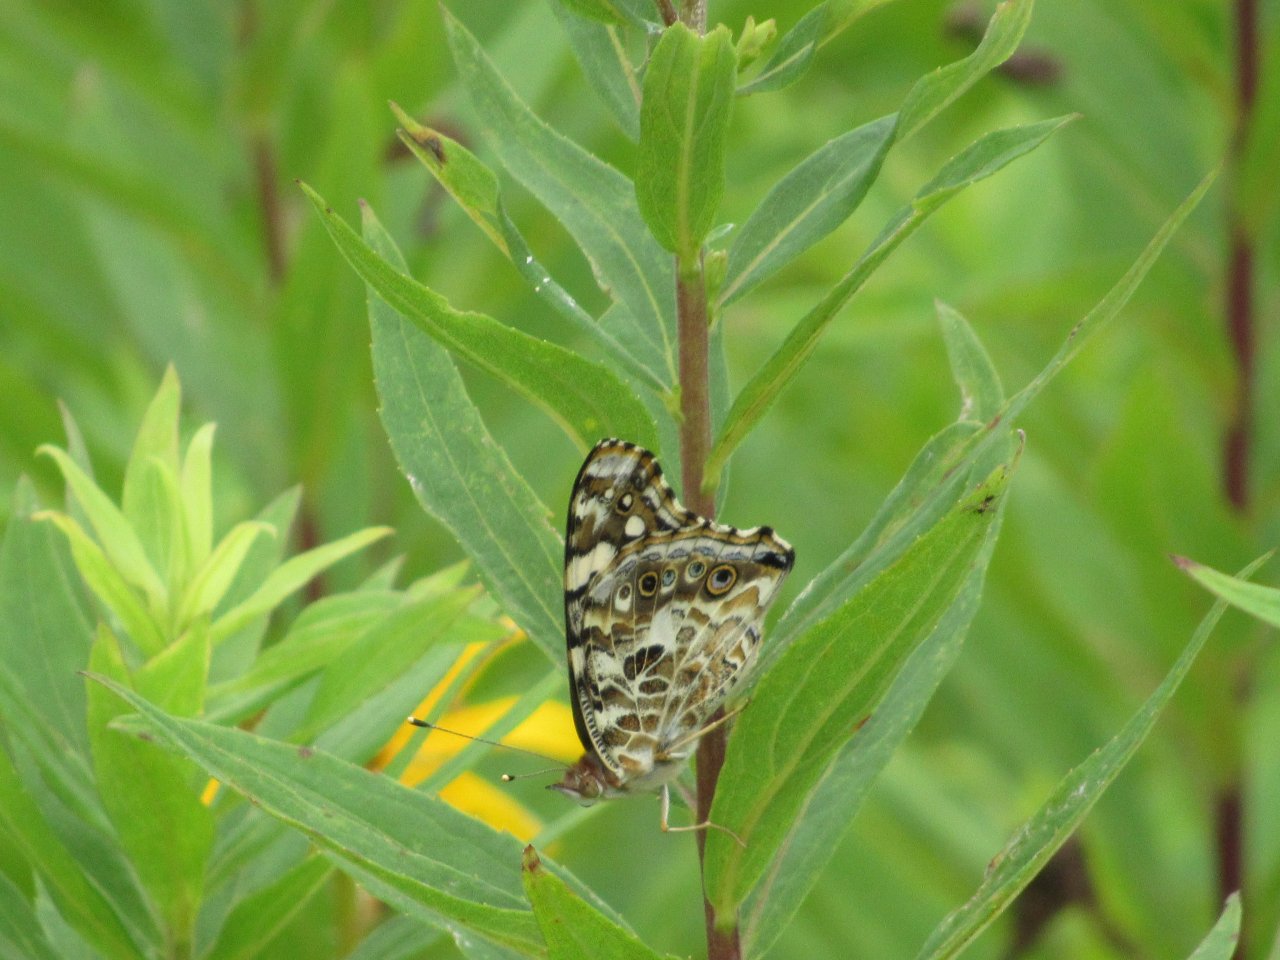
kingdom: Animalia
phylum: Arthropoda
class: Insecta
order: Lepidoptera
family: Nymphalidae
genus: Vanessa
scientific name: Vanessa cardui
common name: Painted Lady
